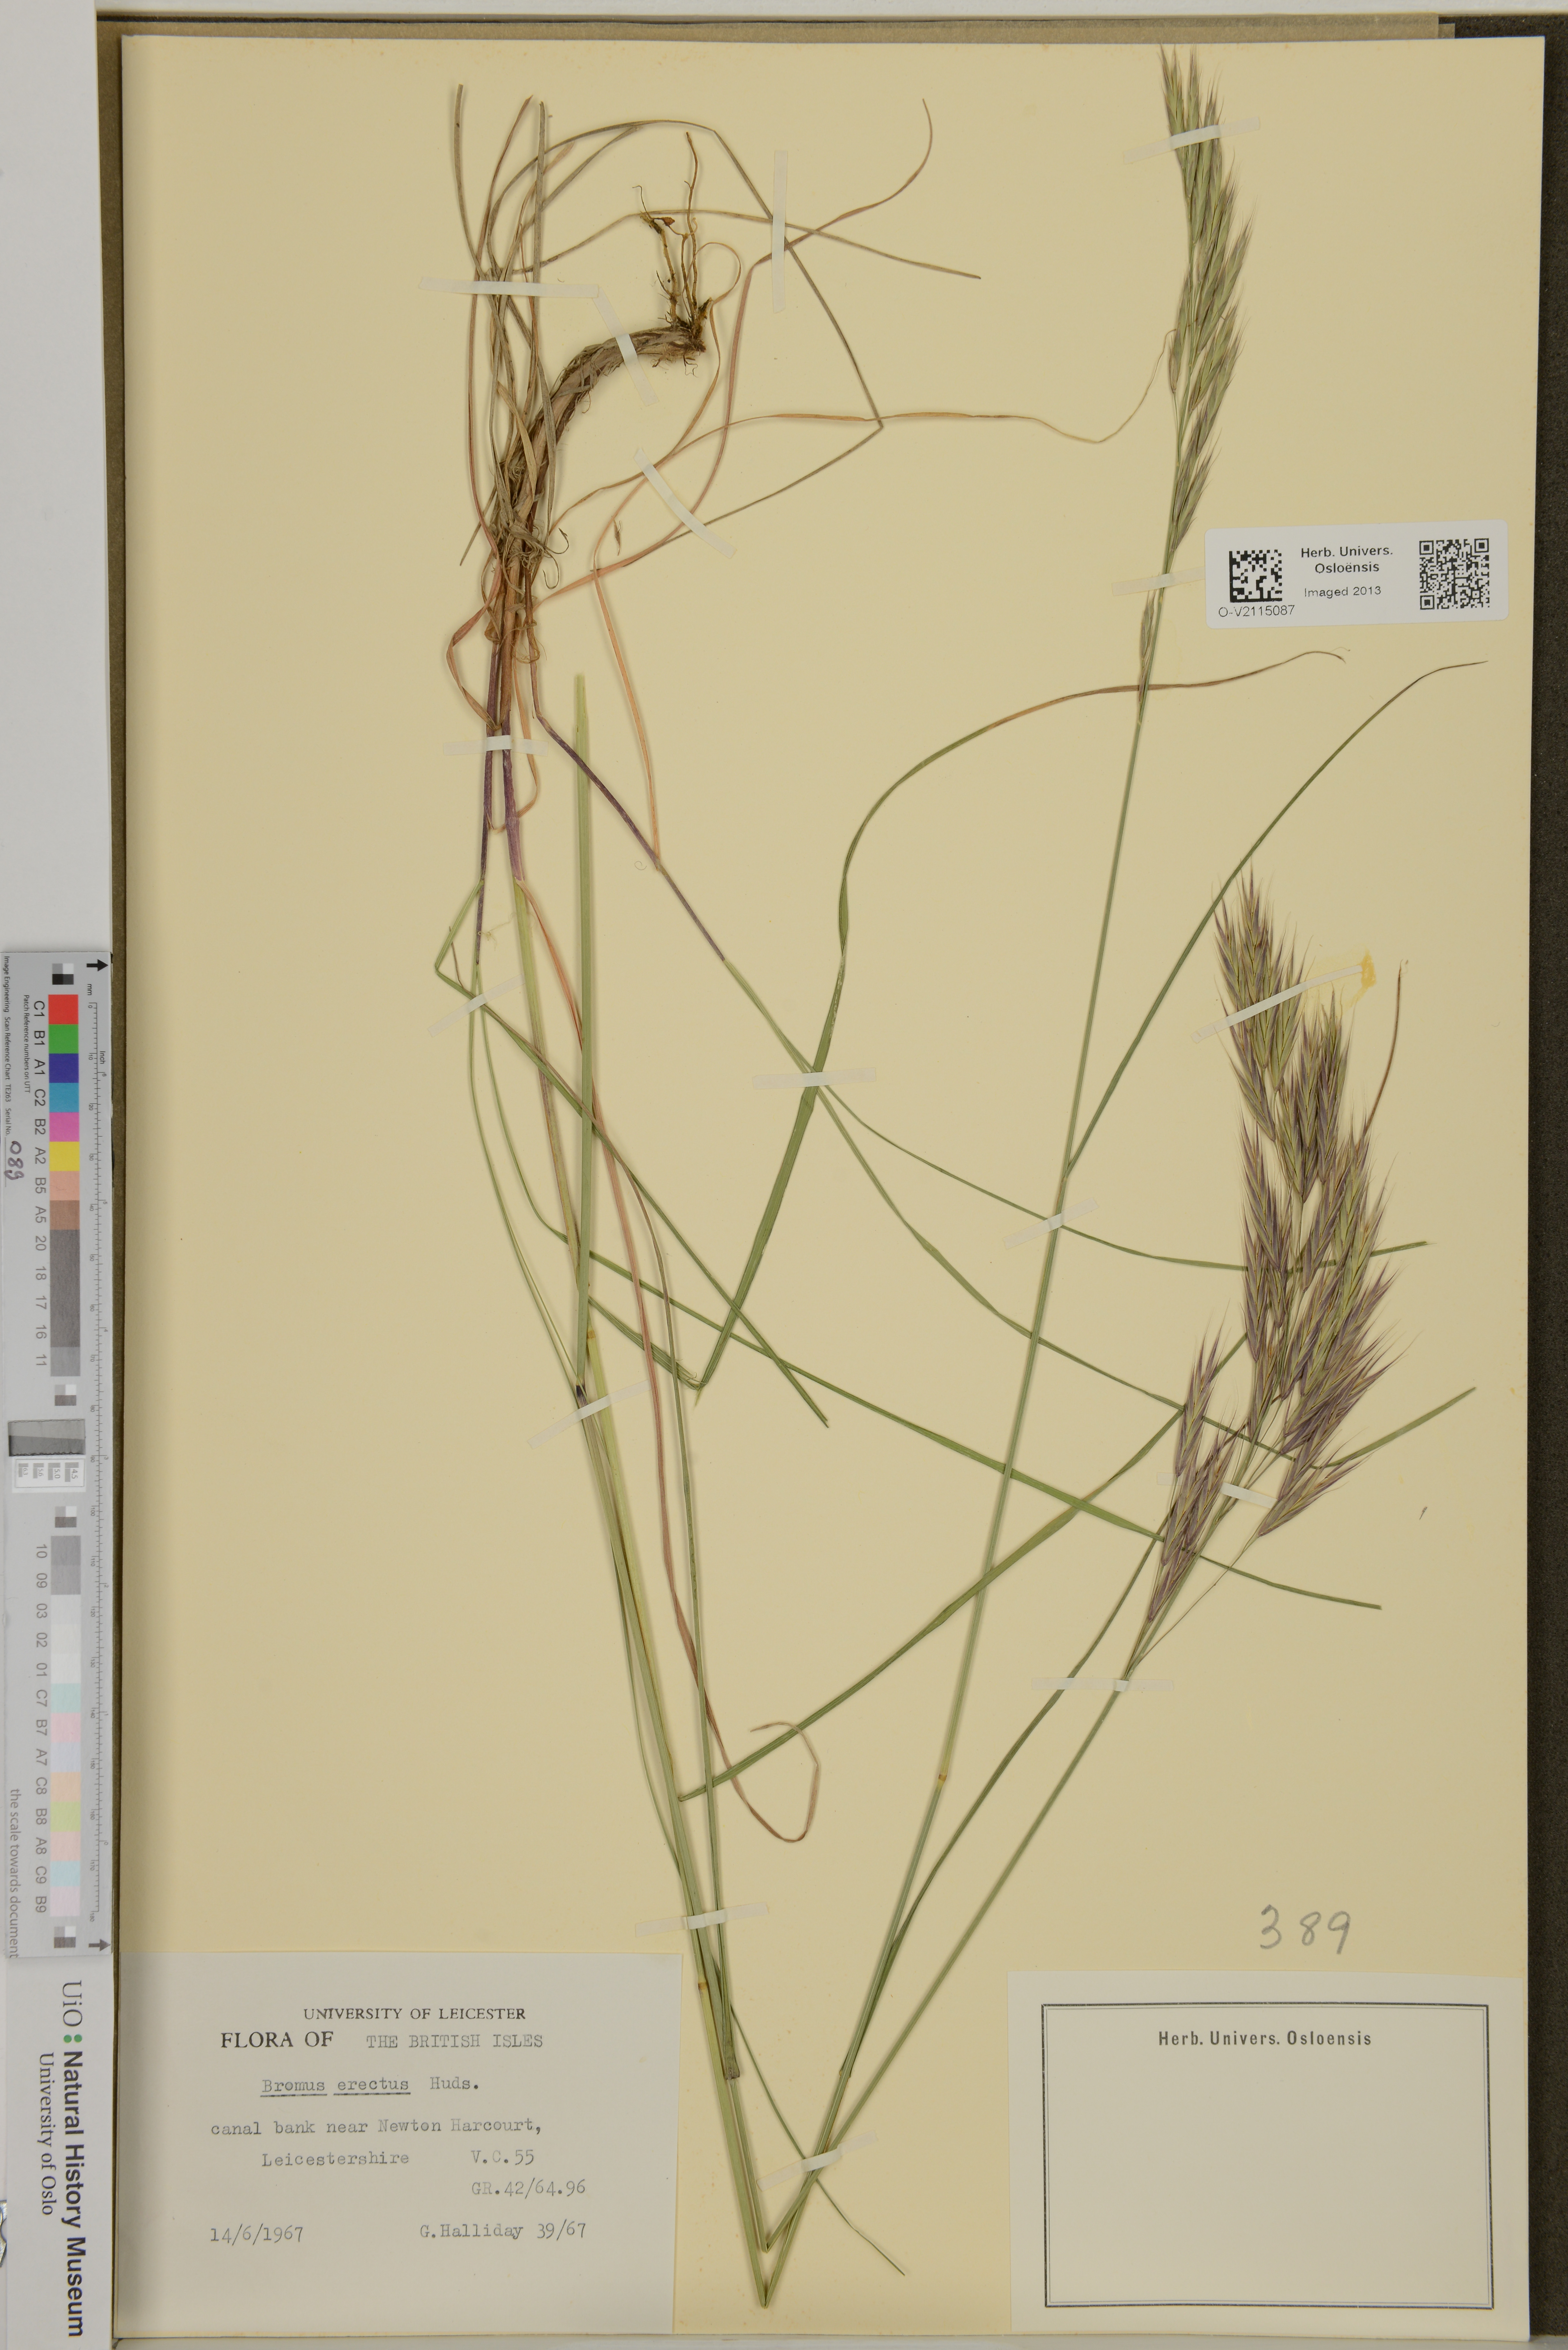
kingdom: Plantae
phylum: Tracheophyta
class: Liliopsida
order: Poales
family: Poaceae
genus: Bromus
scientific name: Bromus erectus
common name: Erect brome
